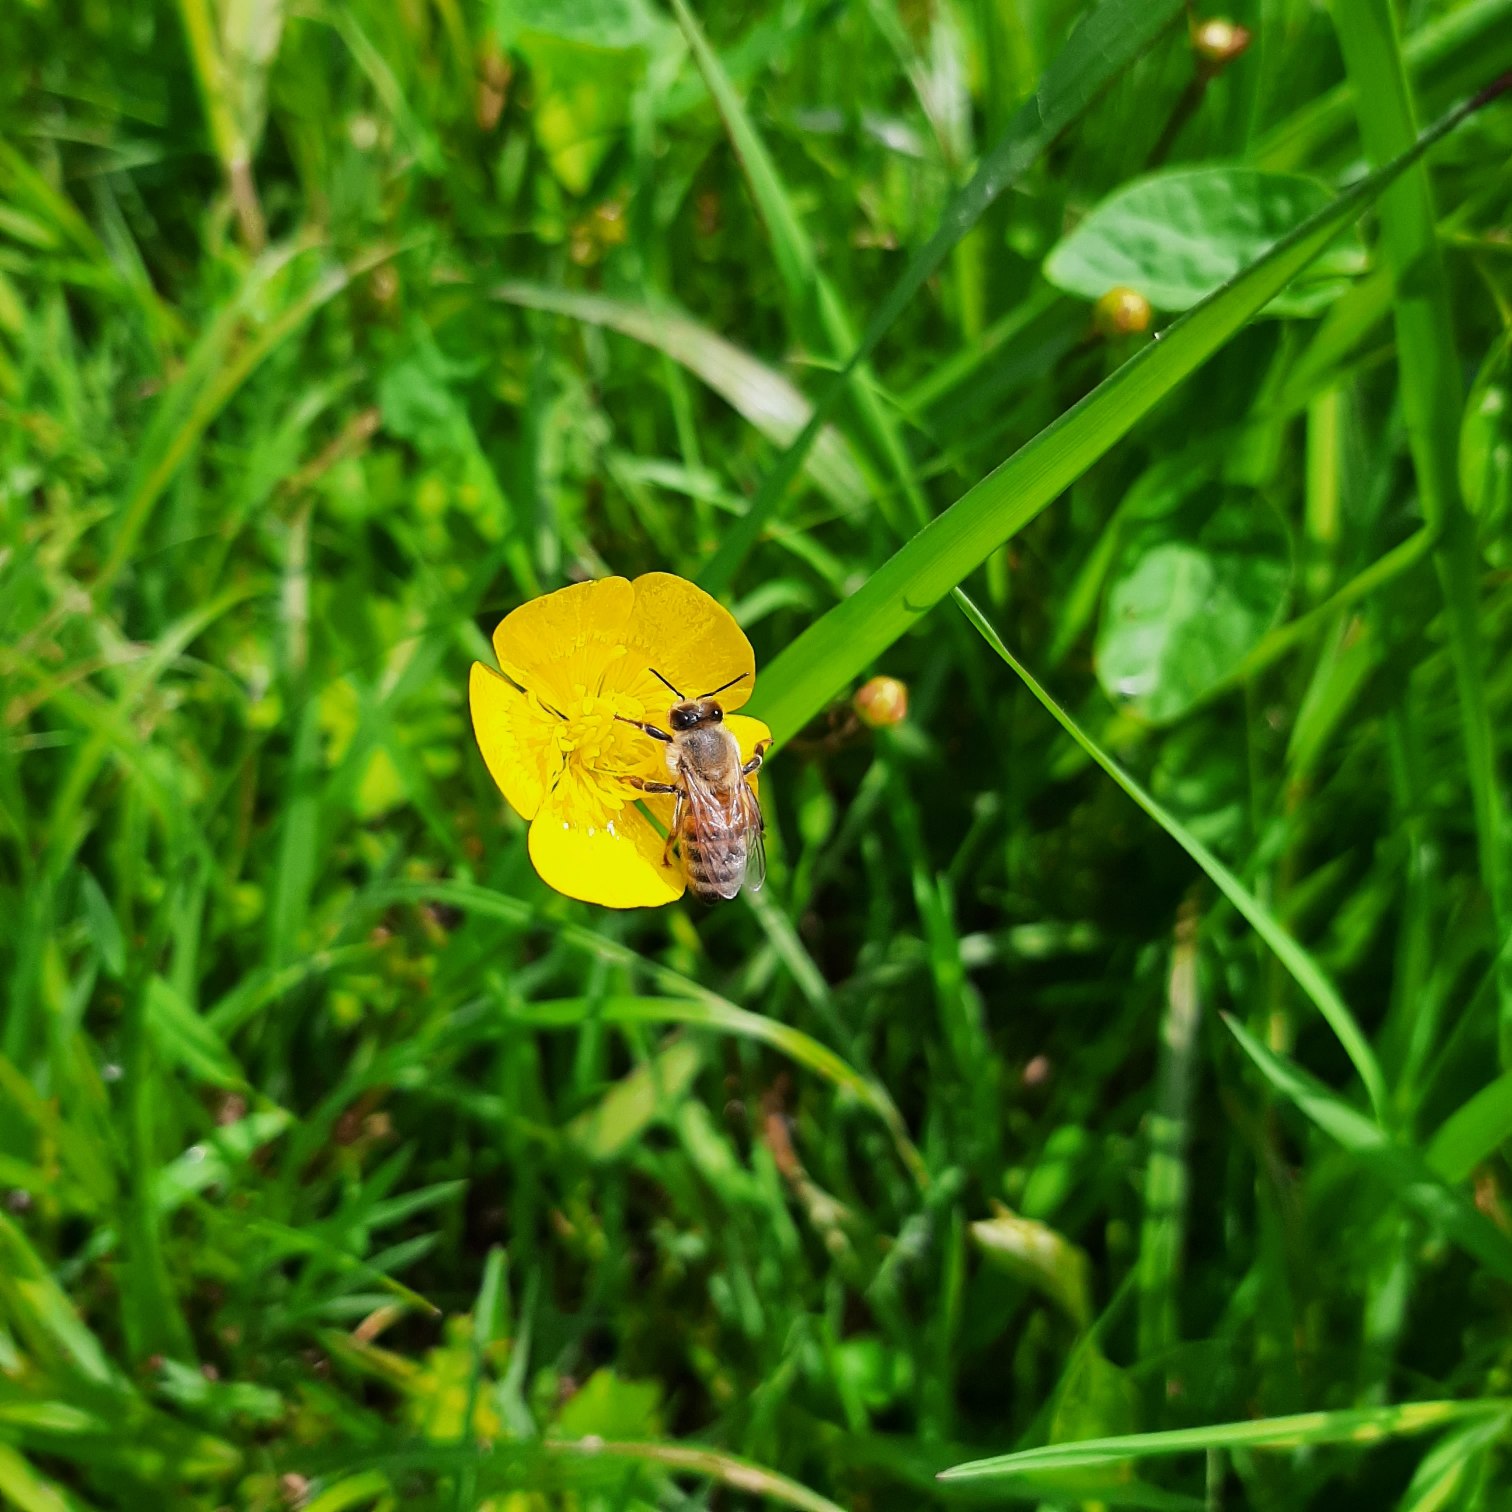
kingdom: Animalia
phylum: Arthropoda
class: Insecta
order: Hymenoptera
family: Apidae
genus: Apis
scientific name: Apis mellifera
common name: Honningbi
